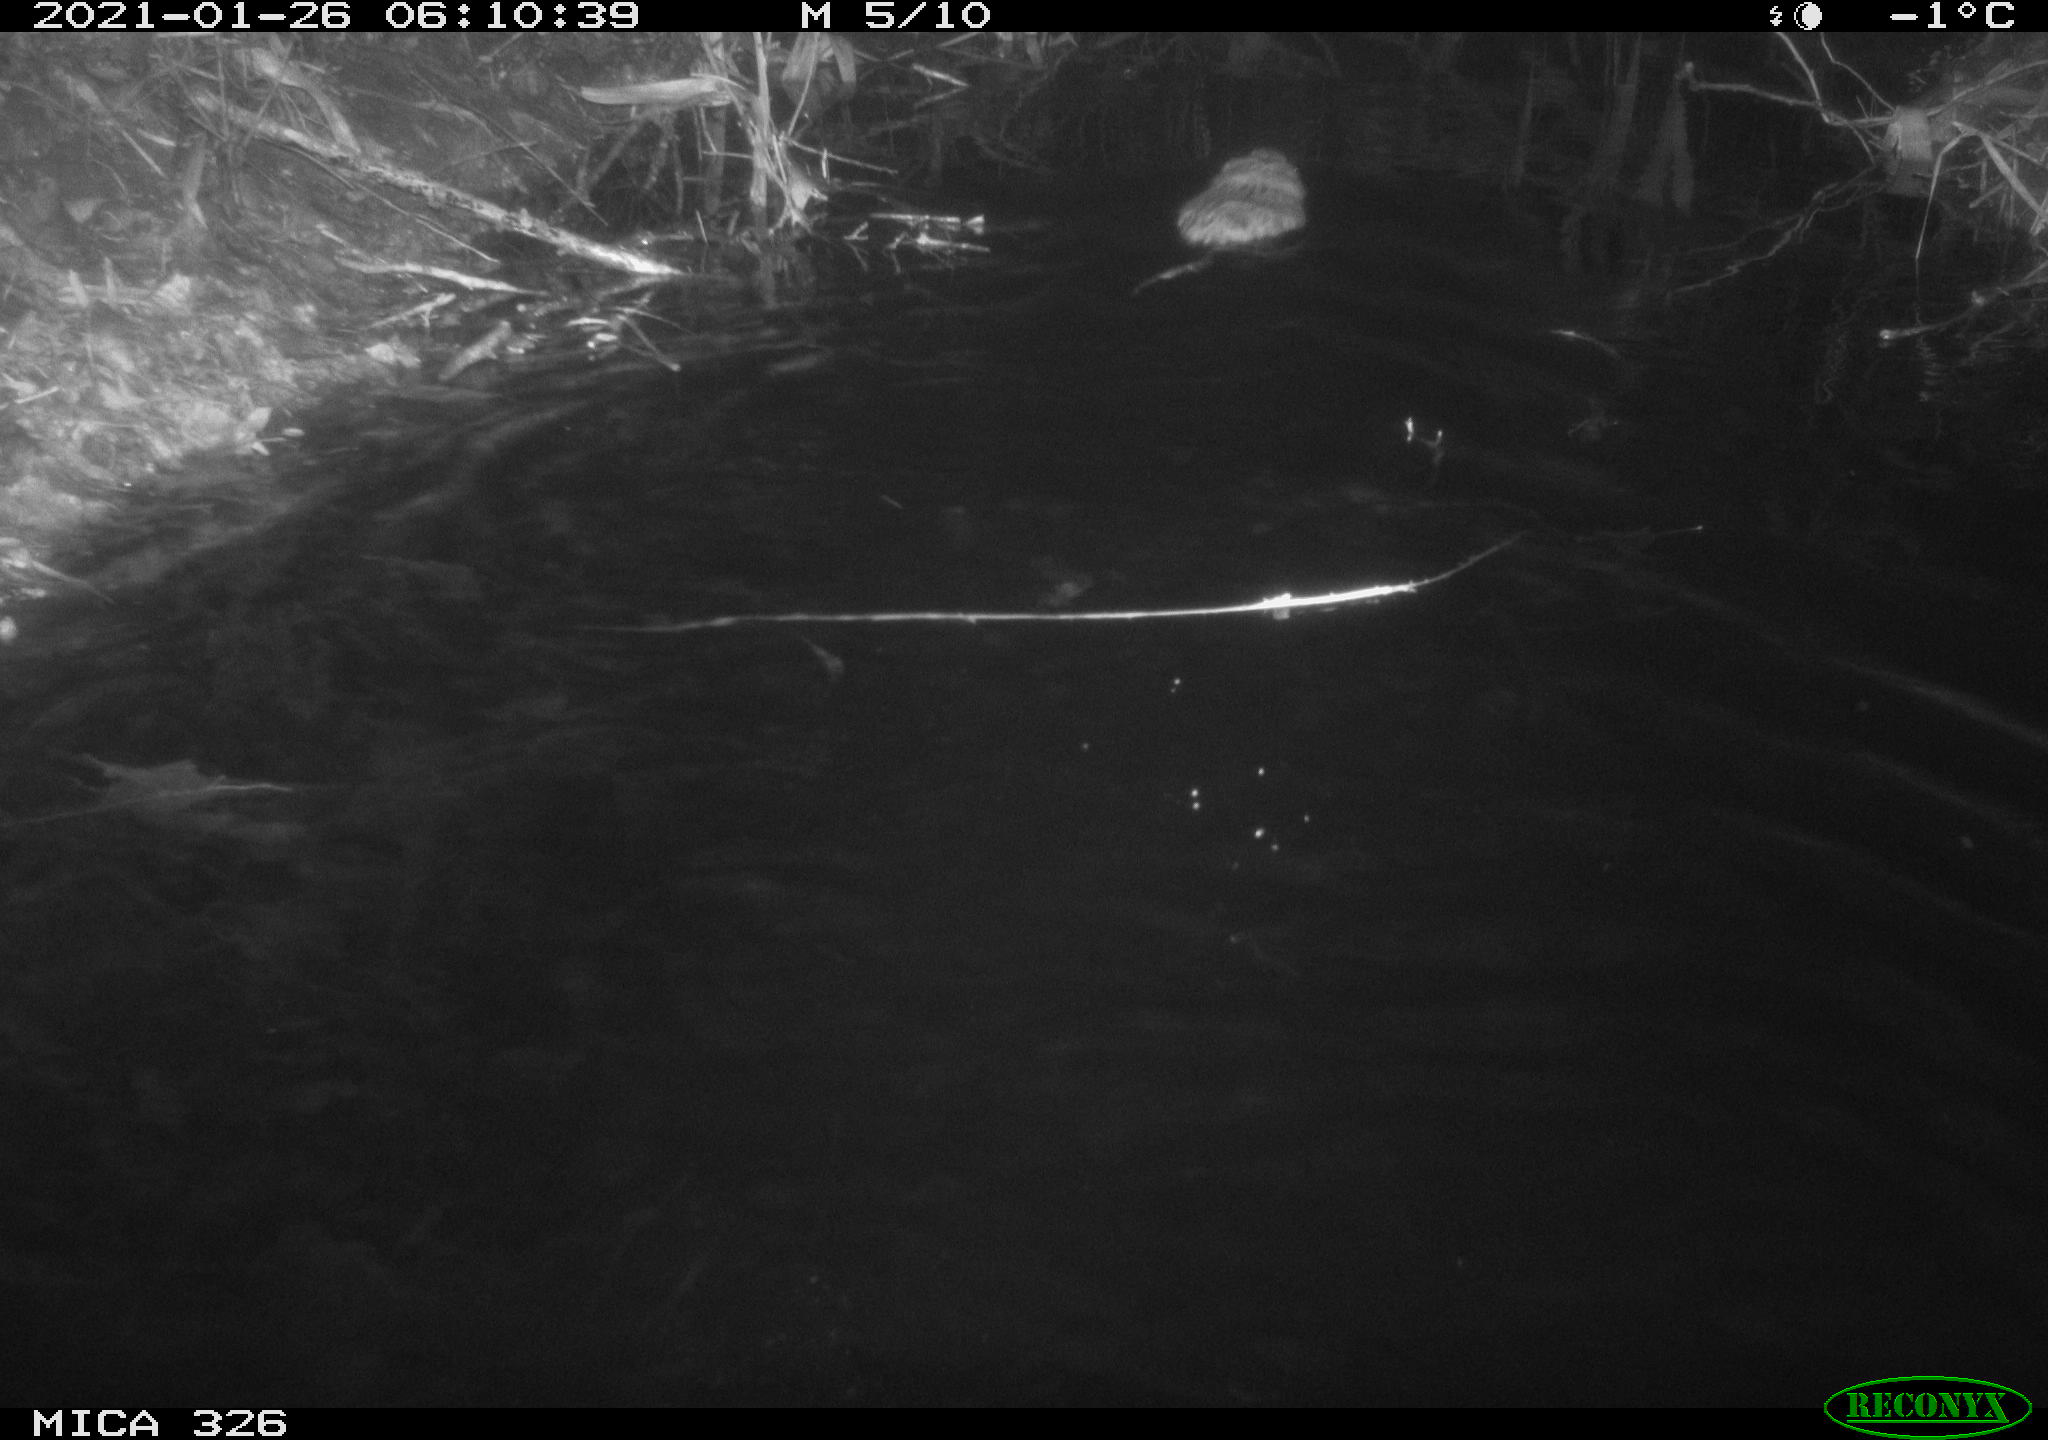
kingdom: Animalia
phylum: Chordata
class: Mammalia
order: Rodentia
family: Cricetidae
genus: Ondatra
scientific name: Ondatra zibethicus
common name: Muskrat
